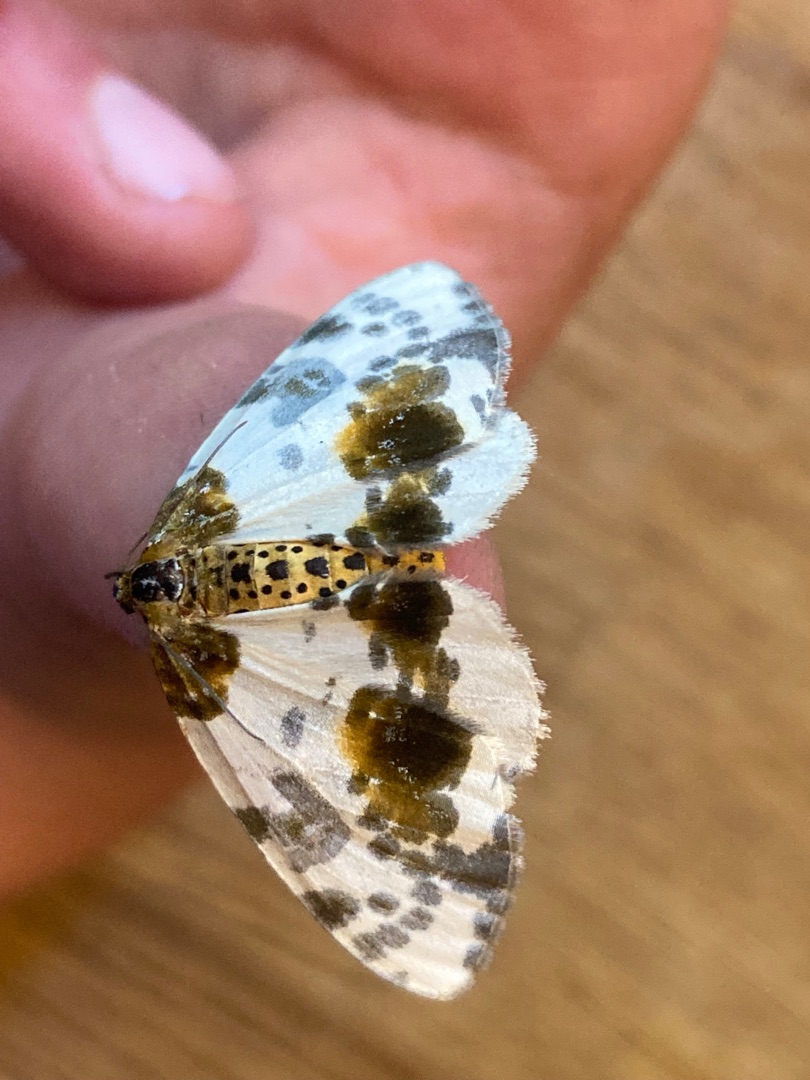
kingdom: Animalia
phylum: Arthropoda
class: Insecta
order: Lepidoptera
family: Geometridae
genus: Abraxas
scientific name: Abraxas sylvata
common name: Elmemåler
